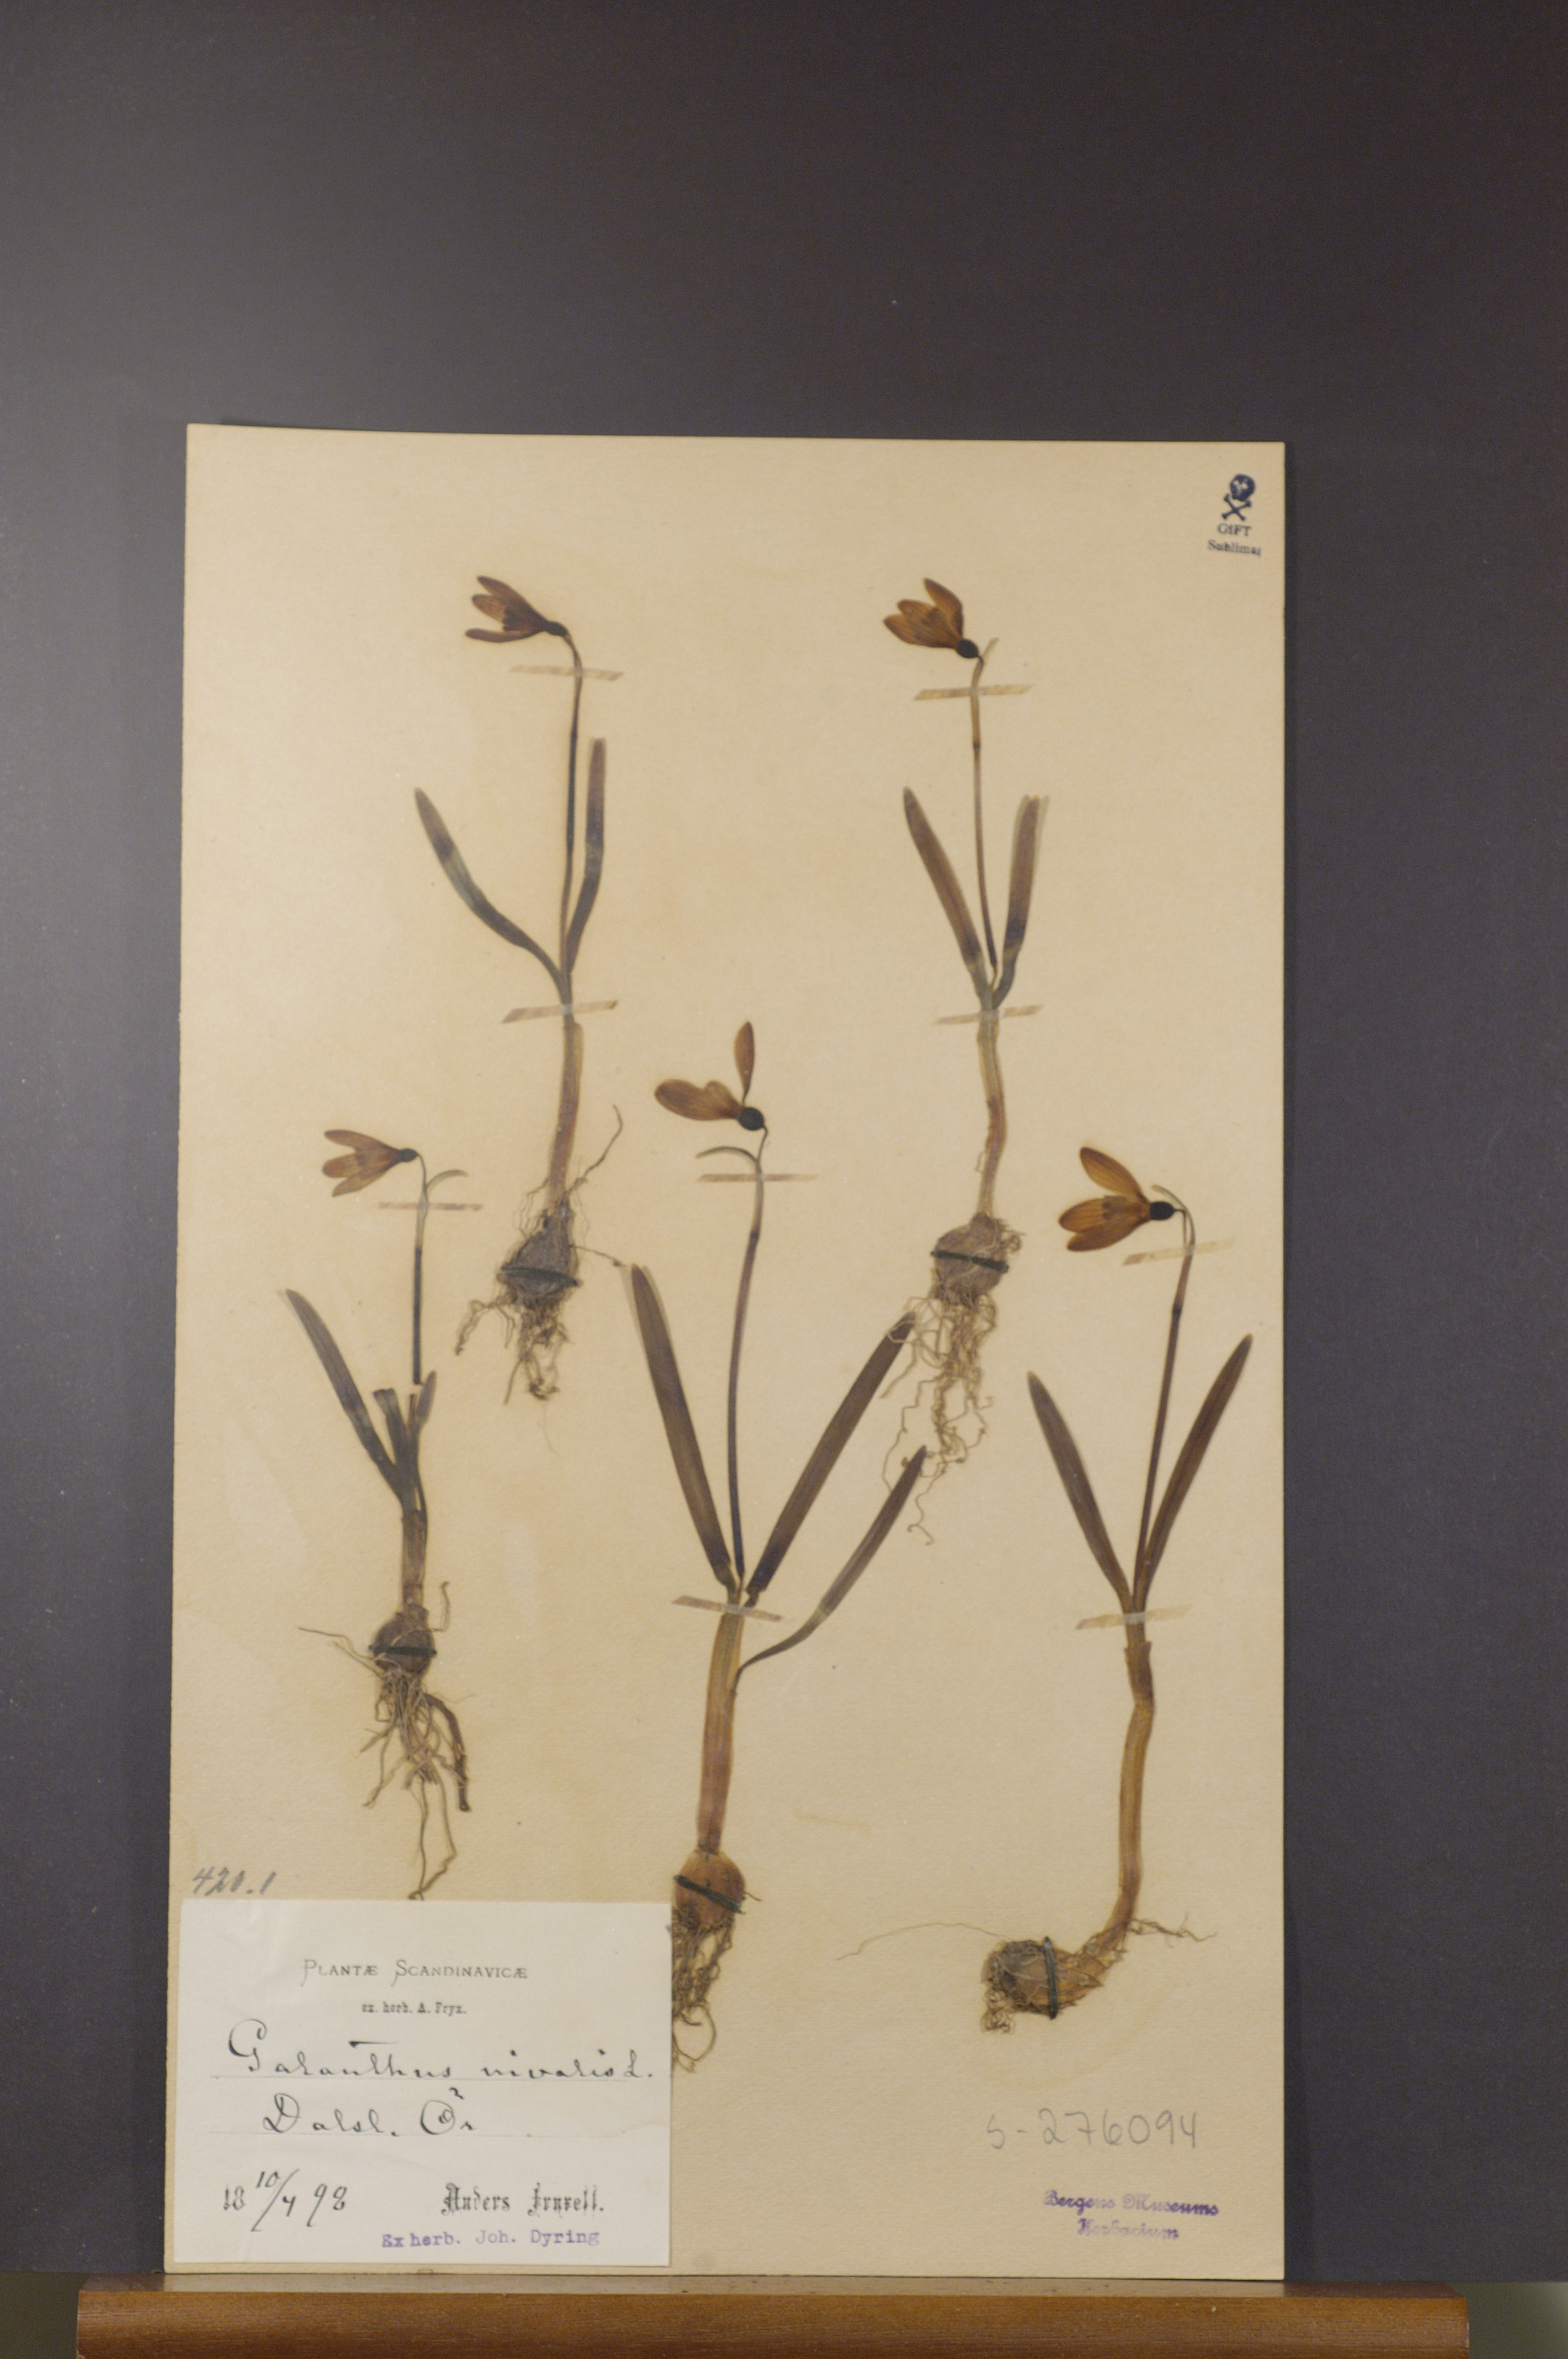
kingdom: Plantae
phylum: Tracheophyta
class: Liliopsida
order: Asparagales
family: Amaryllidaceae
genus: Galanthus
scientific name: Galanthus nivalis
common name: Snowdrop
